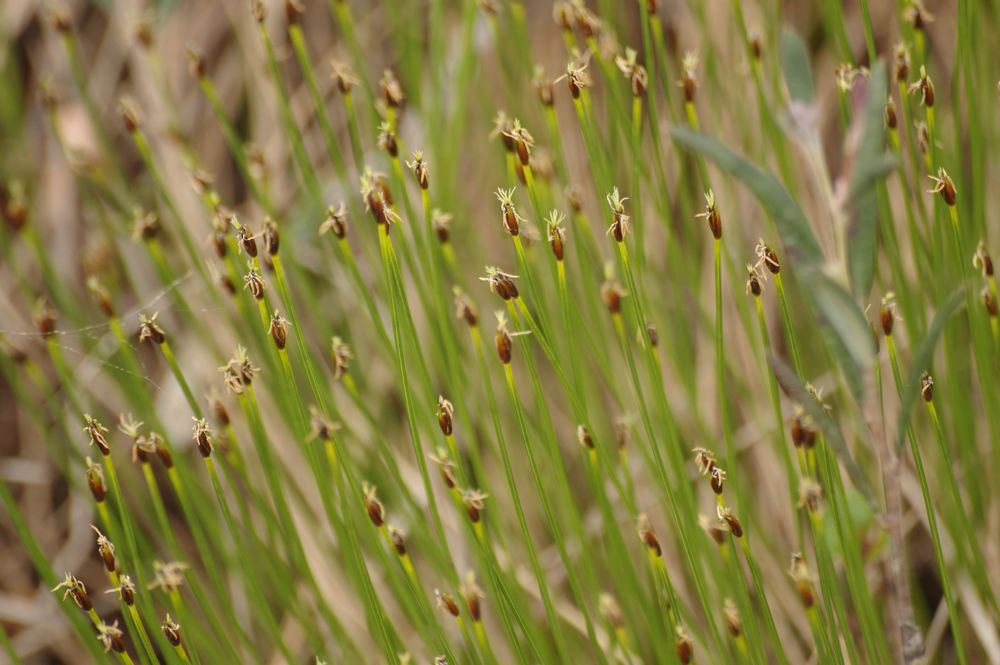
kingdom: Plantae
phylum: Tracheophyta
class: Liliopsida
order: Poales
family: Cyperaceae
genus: Trichophorum
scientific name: Trichophorum cespitosum
